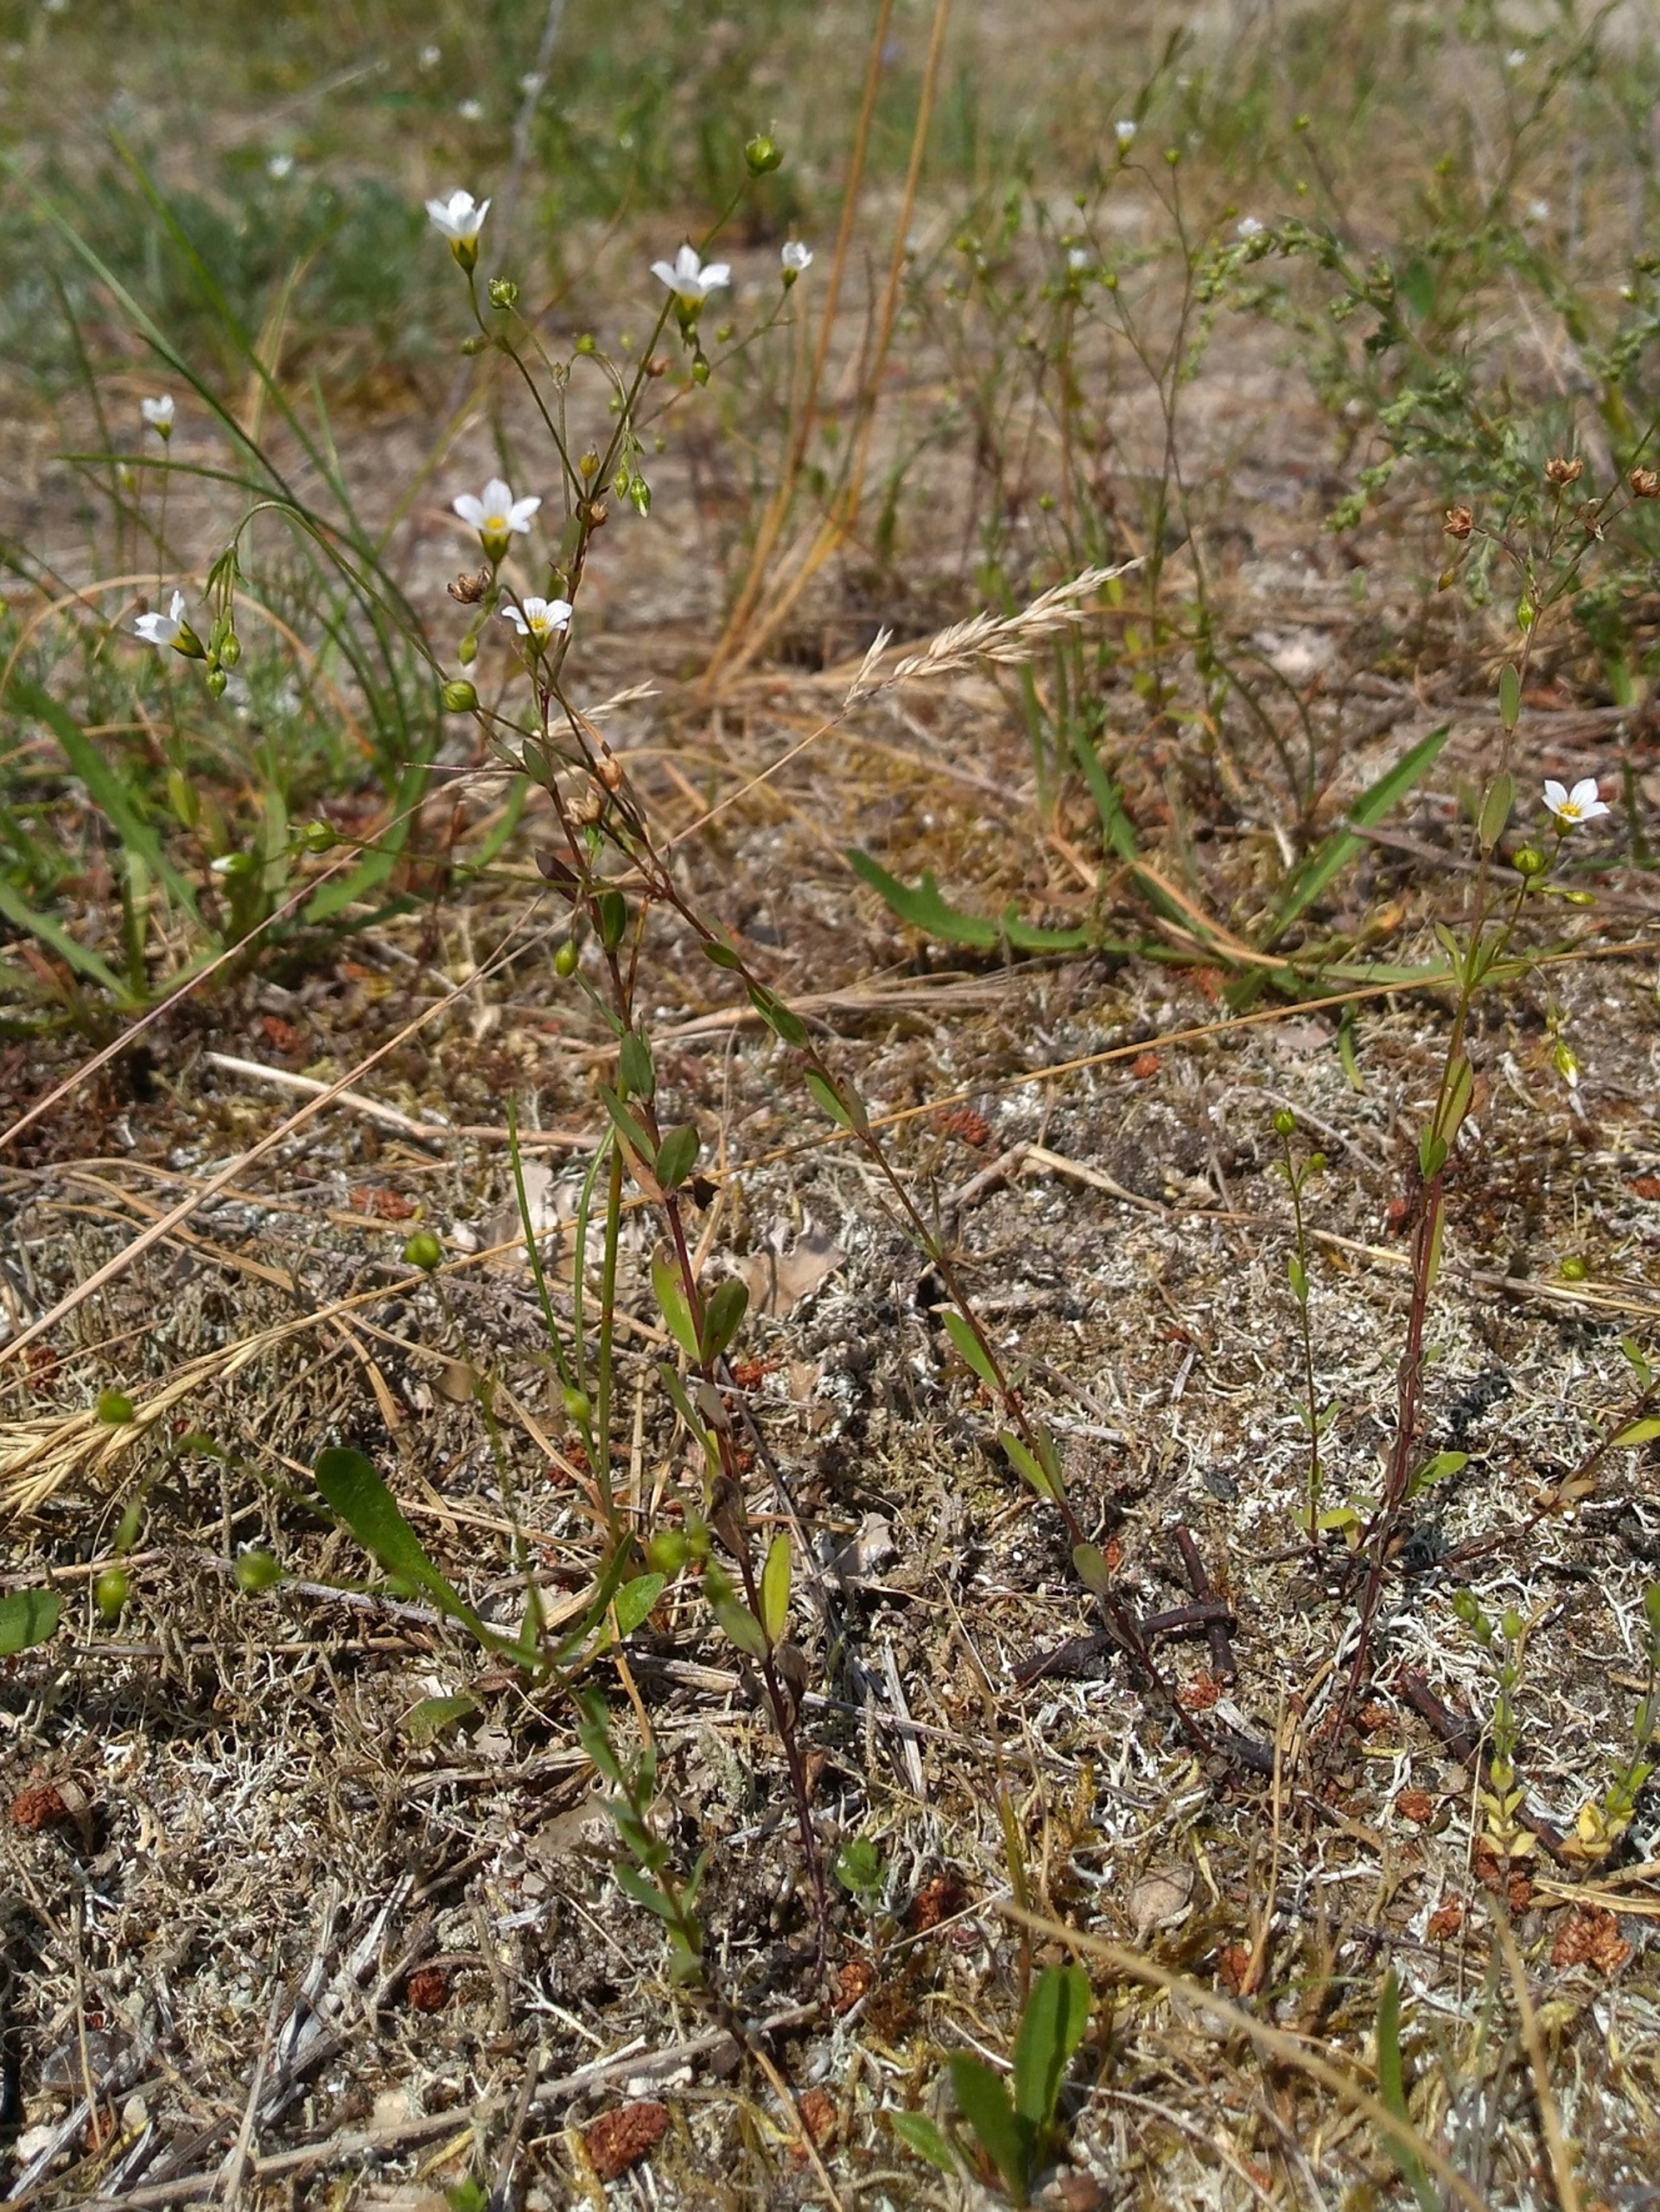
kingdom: Plantae
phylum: Tracheophyta
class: Magnoliopsida
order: Malpighiales
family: Linaceae
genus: Linum
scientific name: Linum catharticum
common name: Vild hør
